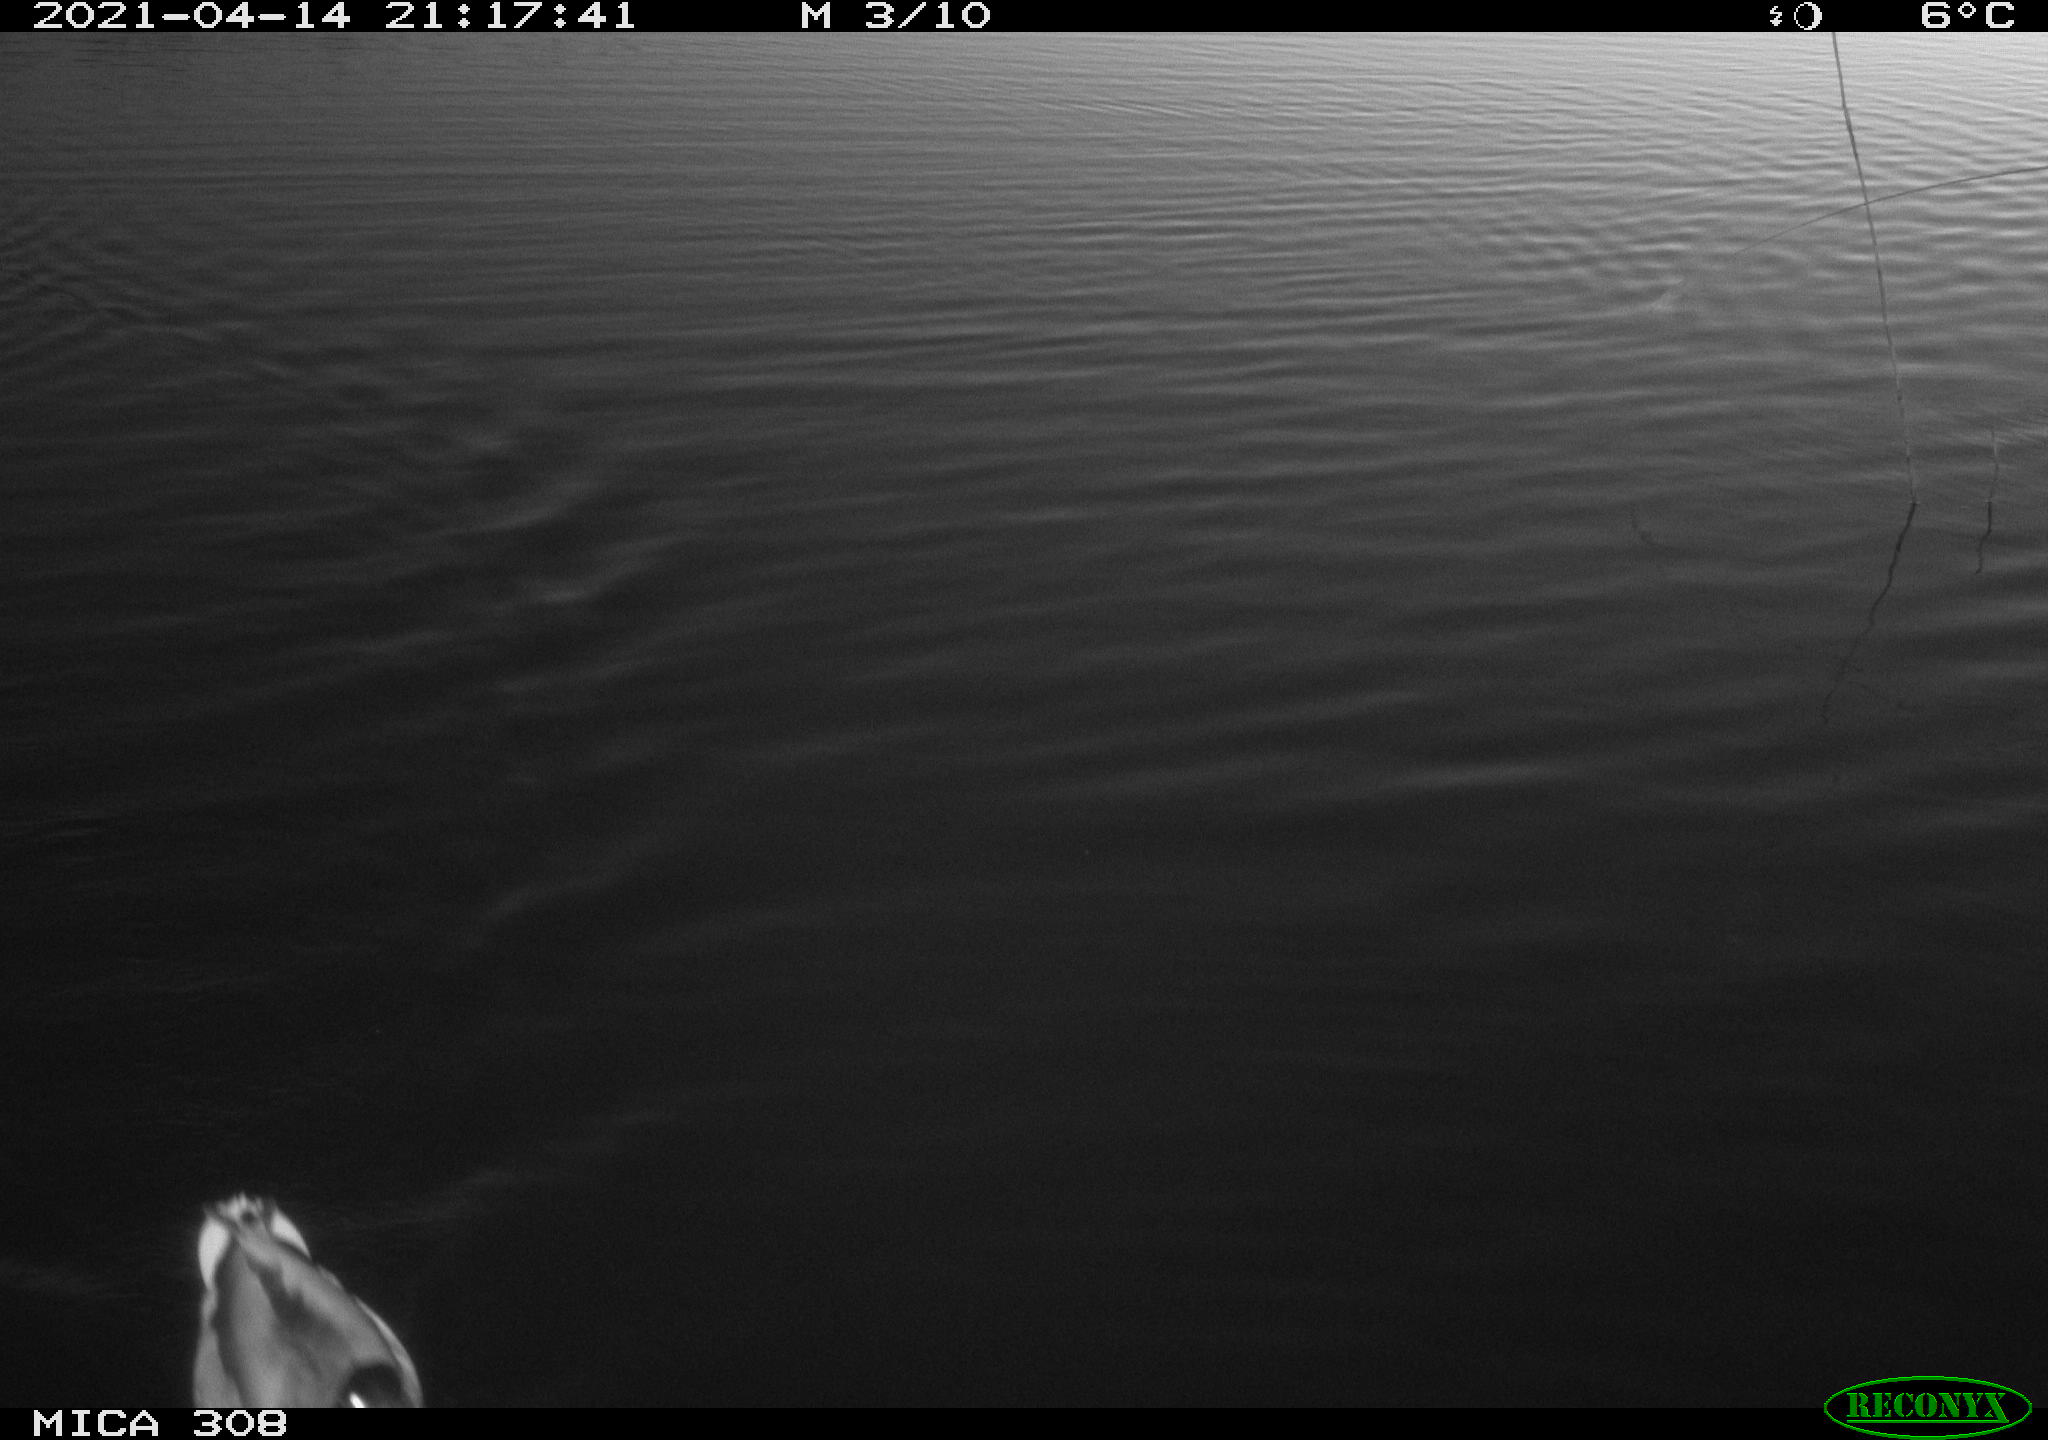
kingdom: Animalia
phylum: Chordata
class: Aves
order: Anseriformes
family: Anatidae
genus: Anas
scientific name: Anas platyrhynchos
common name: Mallard
